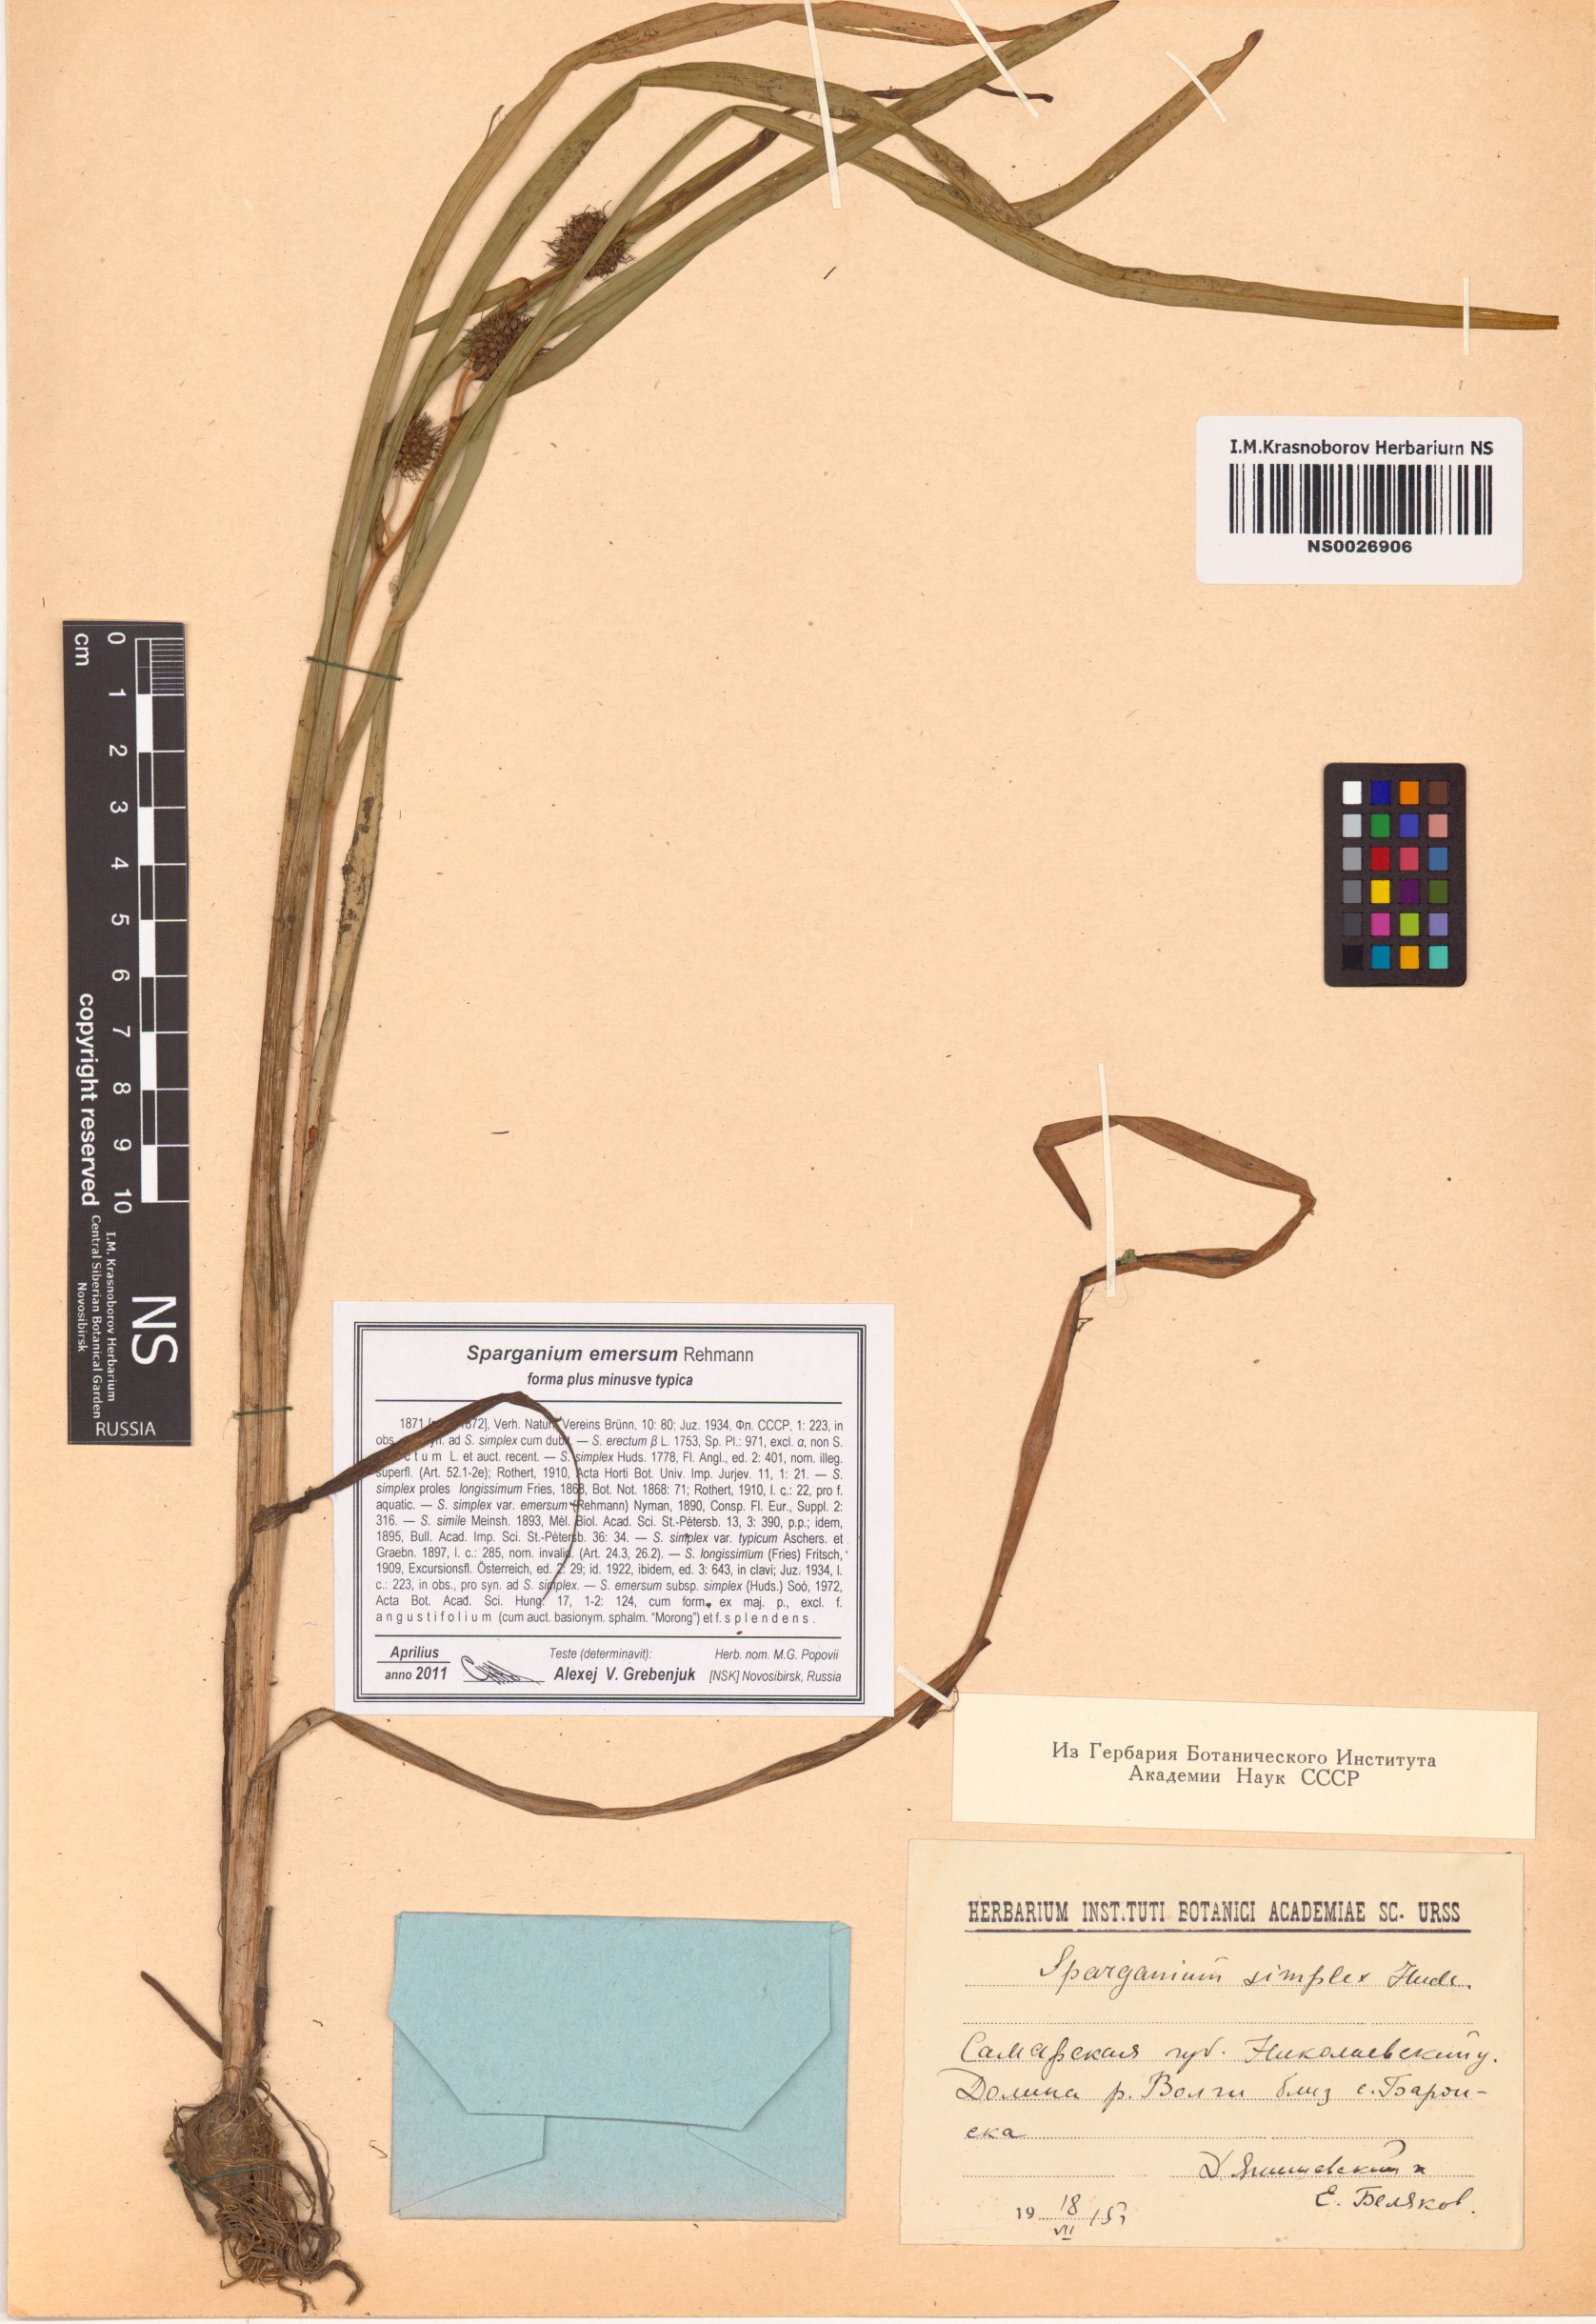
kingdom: Plantae
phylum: Tracheophyta
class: Liliopsida
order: Poales
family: Typhaceae
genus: Sparganium
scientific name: Sparganium emersum
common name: Unbranched bur-reed
